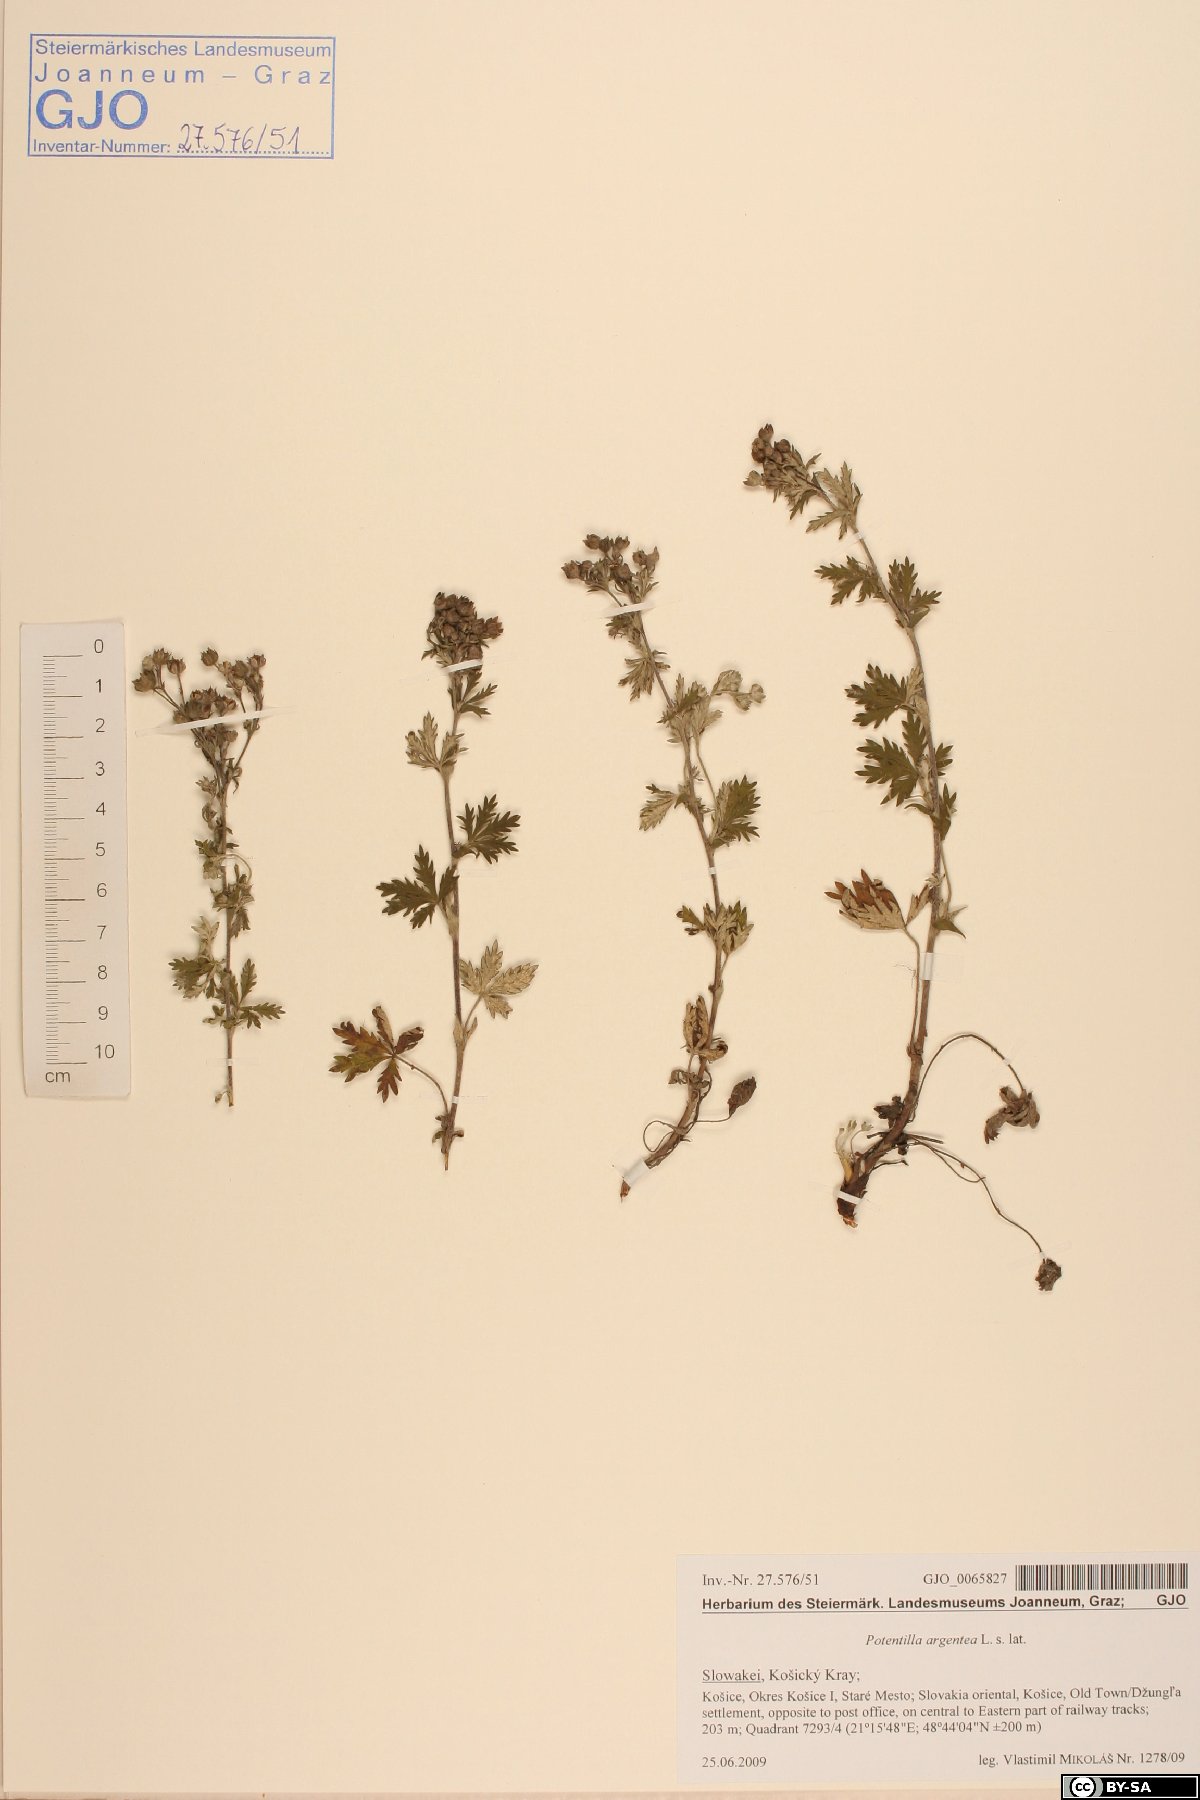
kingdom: Plantae
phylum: Tracheophyta
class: Magnoliopsida
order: Rosales
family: Rosaceae
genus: Potentilla
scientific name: Potentilla argentea
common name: Hoary cinquefoil
